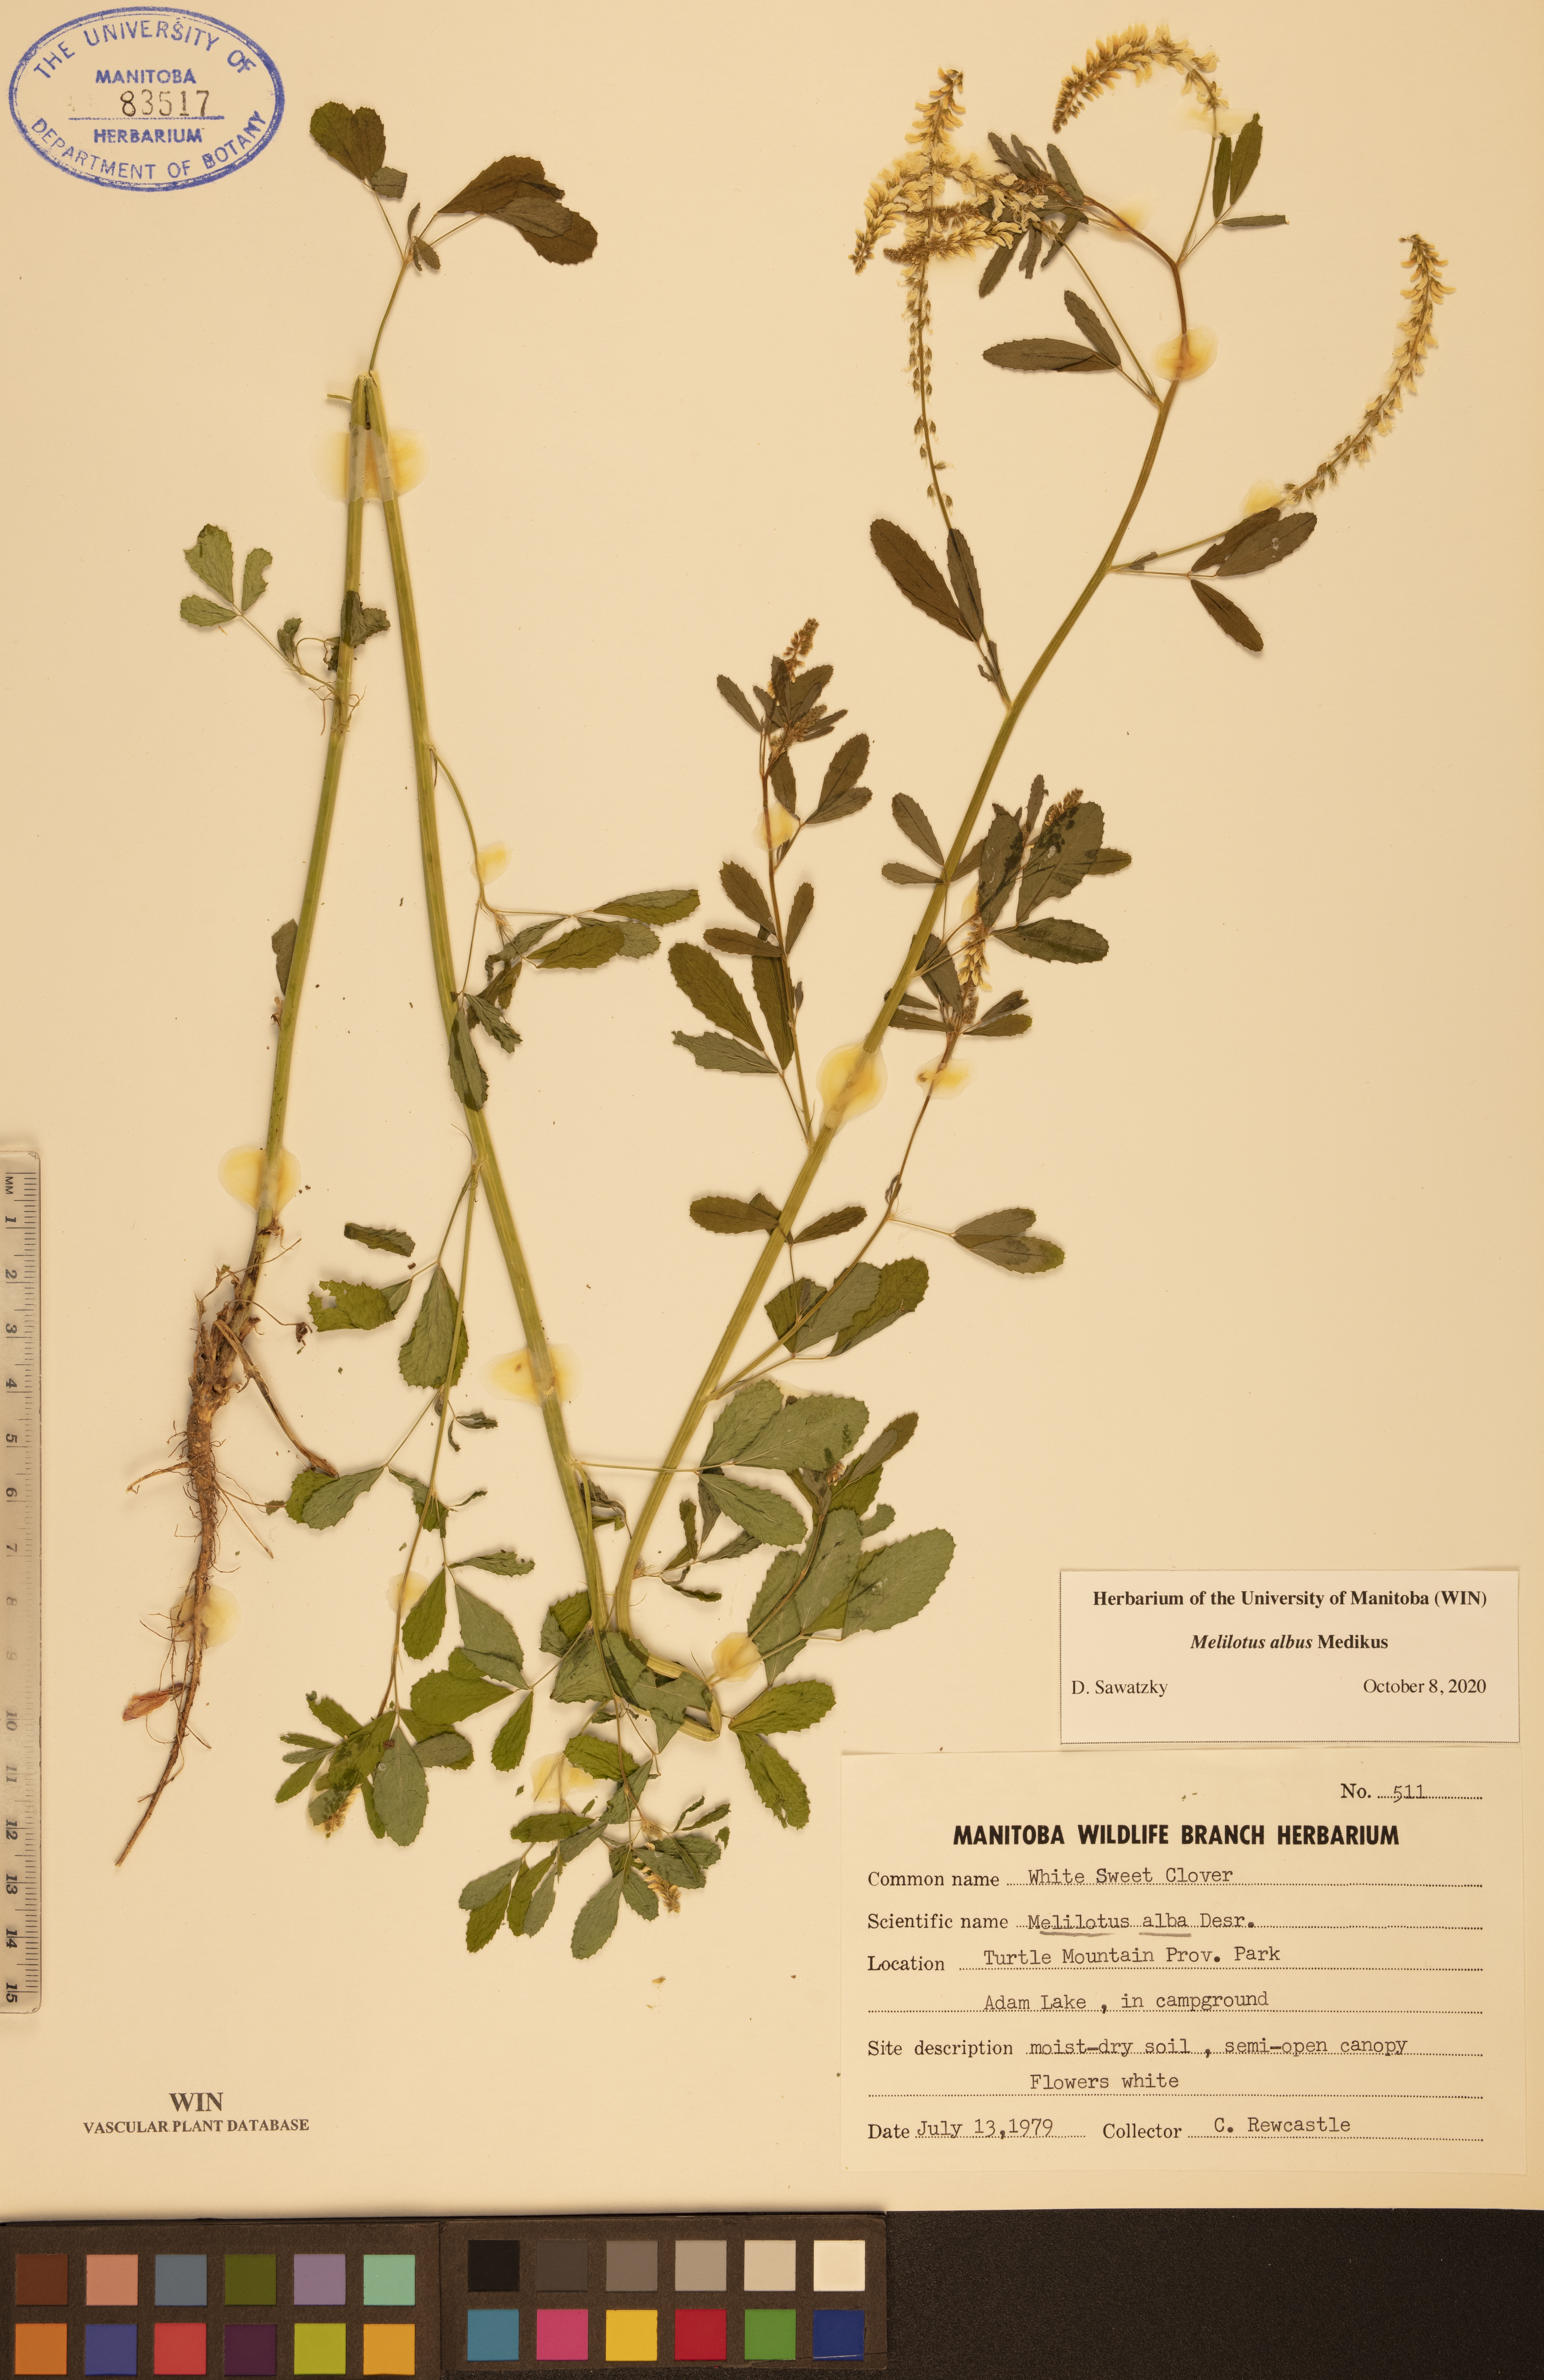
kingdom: Plantae
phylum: Tracheophyta
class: Magnoliopsida
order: Fabales
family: Fabaceae
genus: Melilotus
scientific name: Melilotus albus
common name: White melilot
